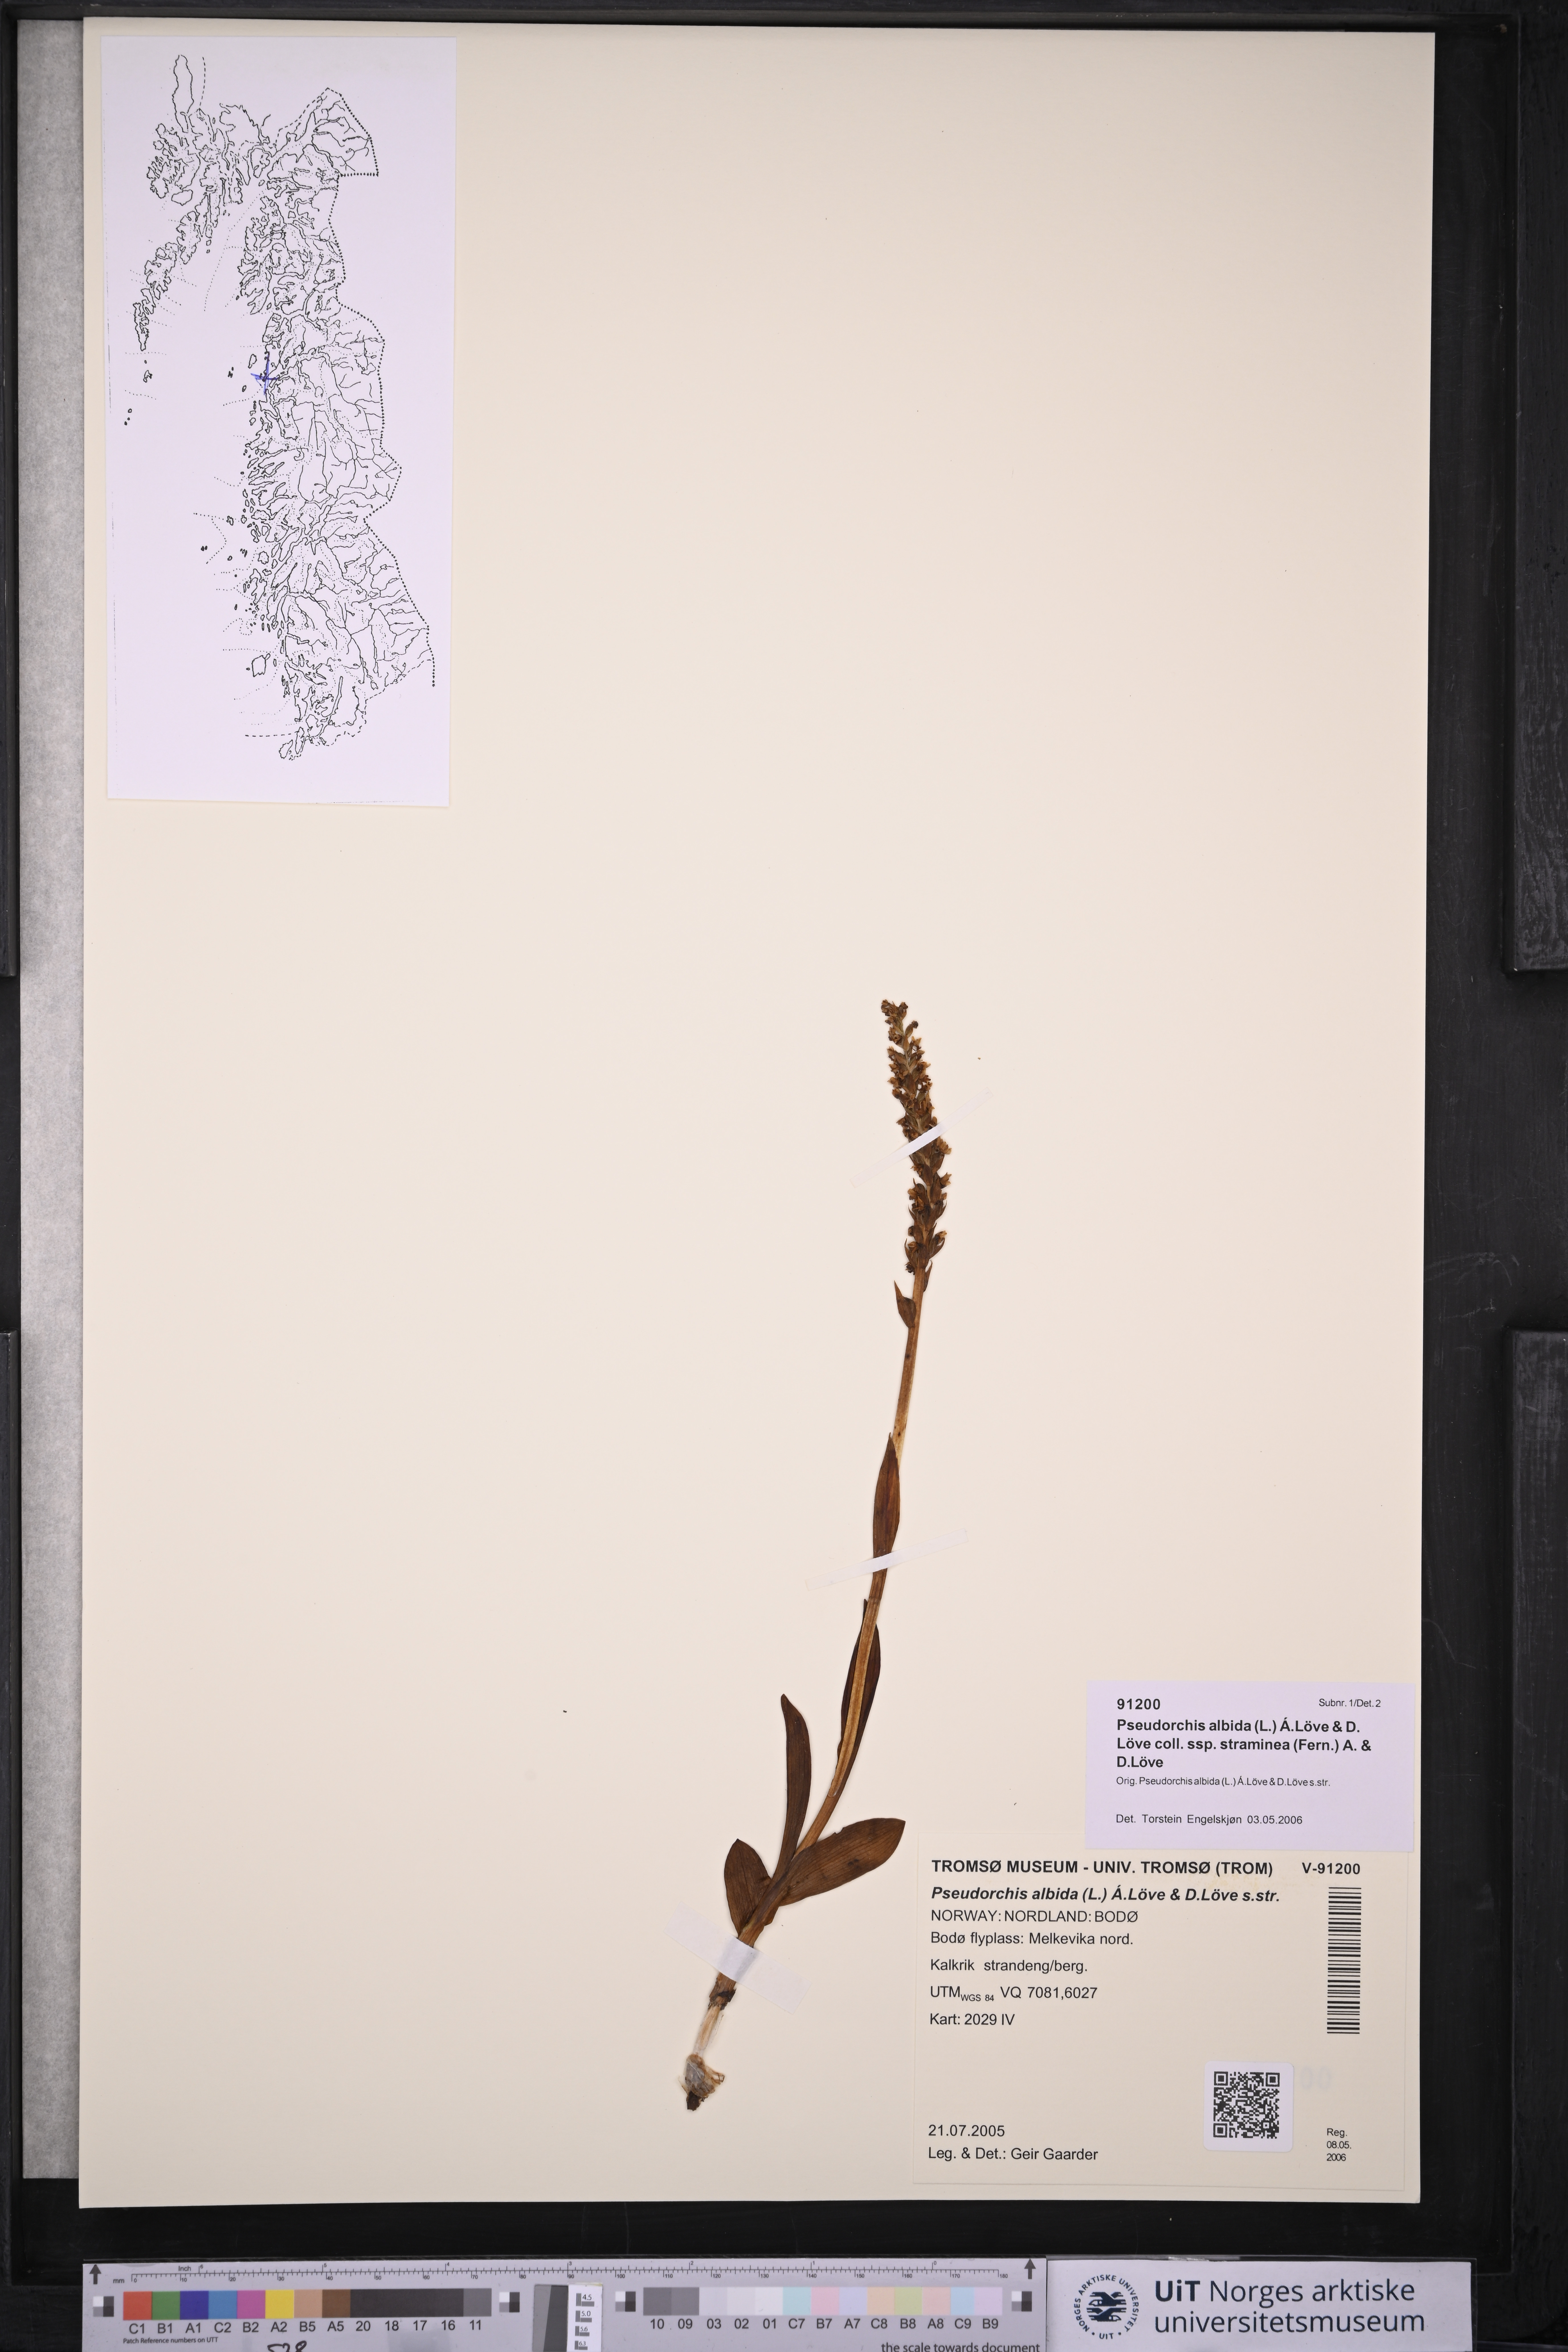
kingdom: Plantae
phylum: Tracheophyta
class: Liliopsida
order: Asparagales
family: Orchidaceae
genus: Pseudorchis
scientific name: Pseudorchis straminea
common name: Vanilla-scented bog orchid
